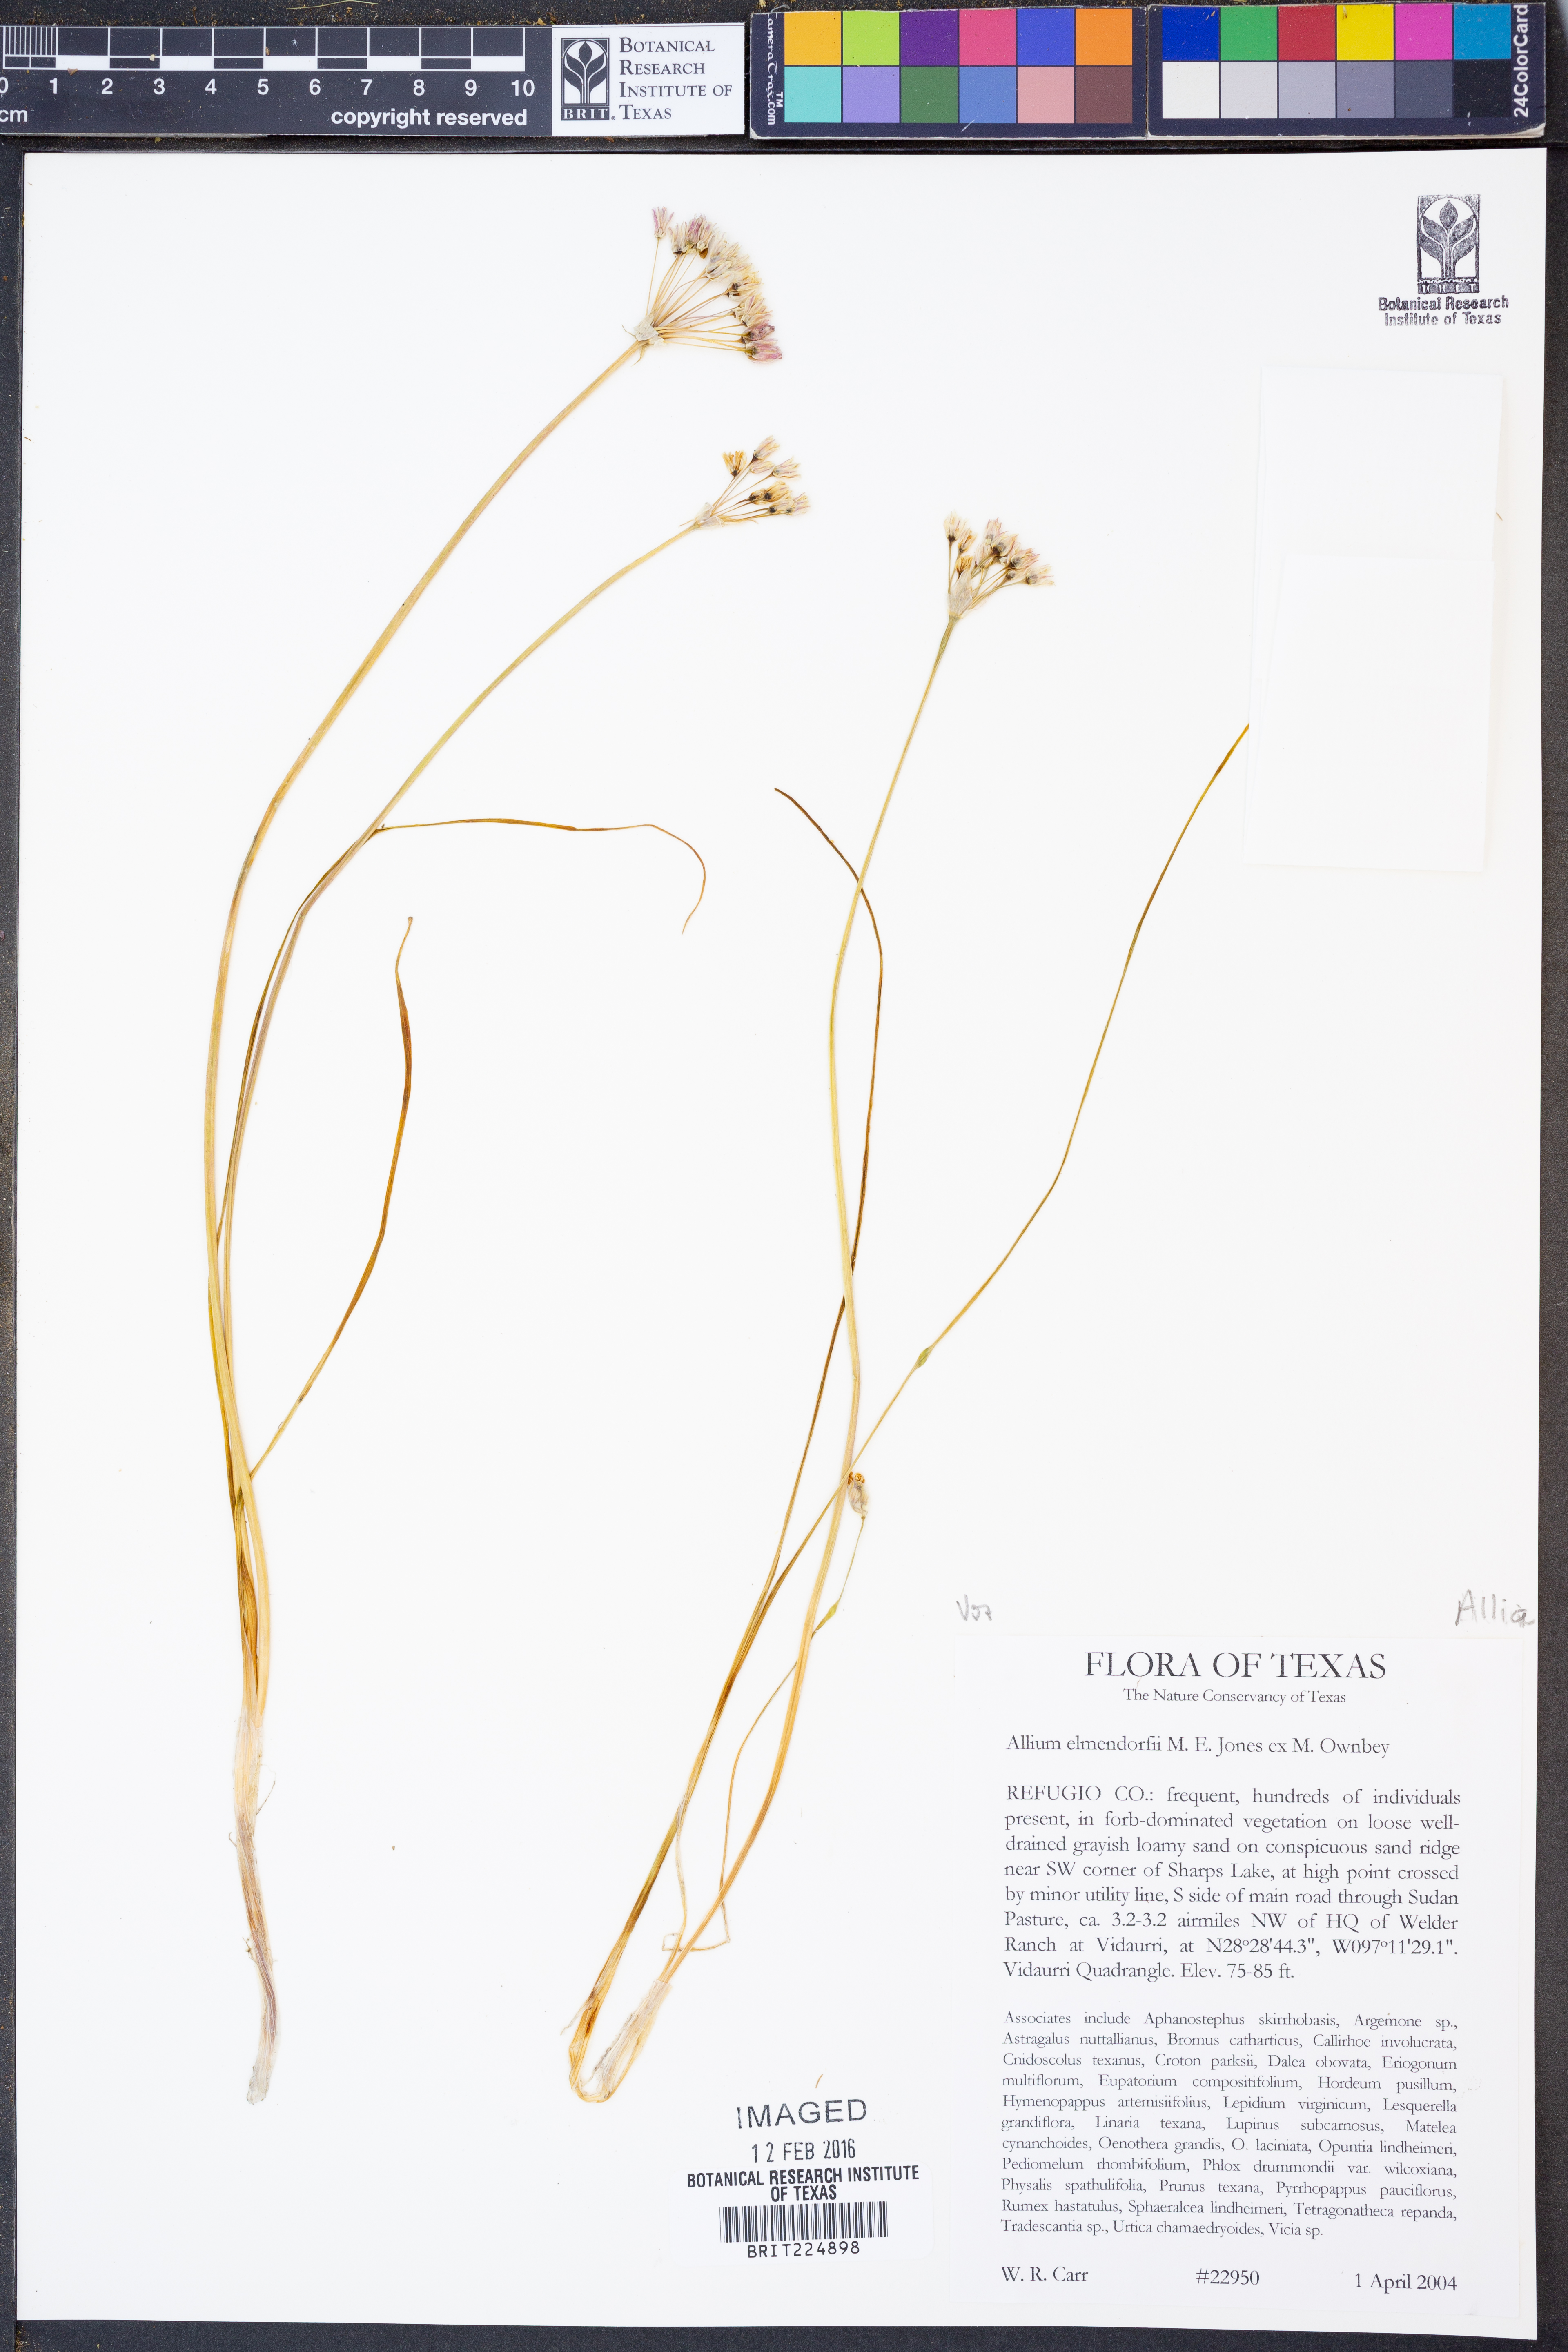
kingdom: Plantae
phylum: Tracheophyta
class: Liliopsida
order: Asparagales
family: Amaryllidaceae
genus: Allium
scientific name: Allium elmendorfii
